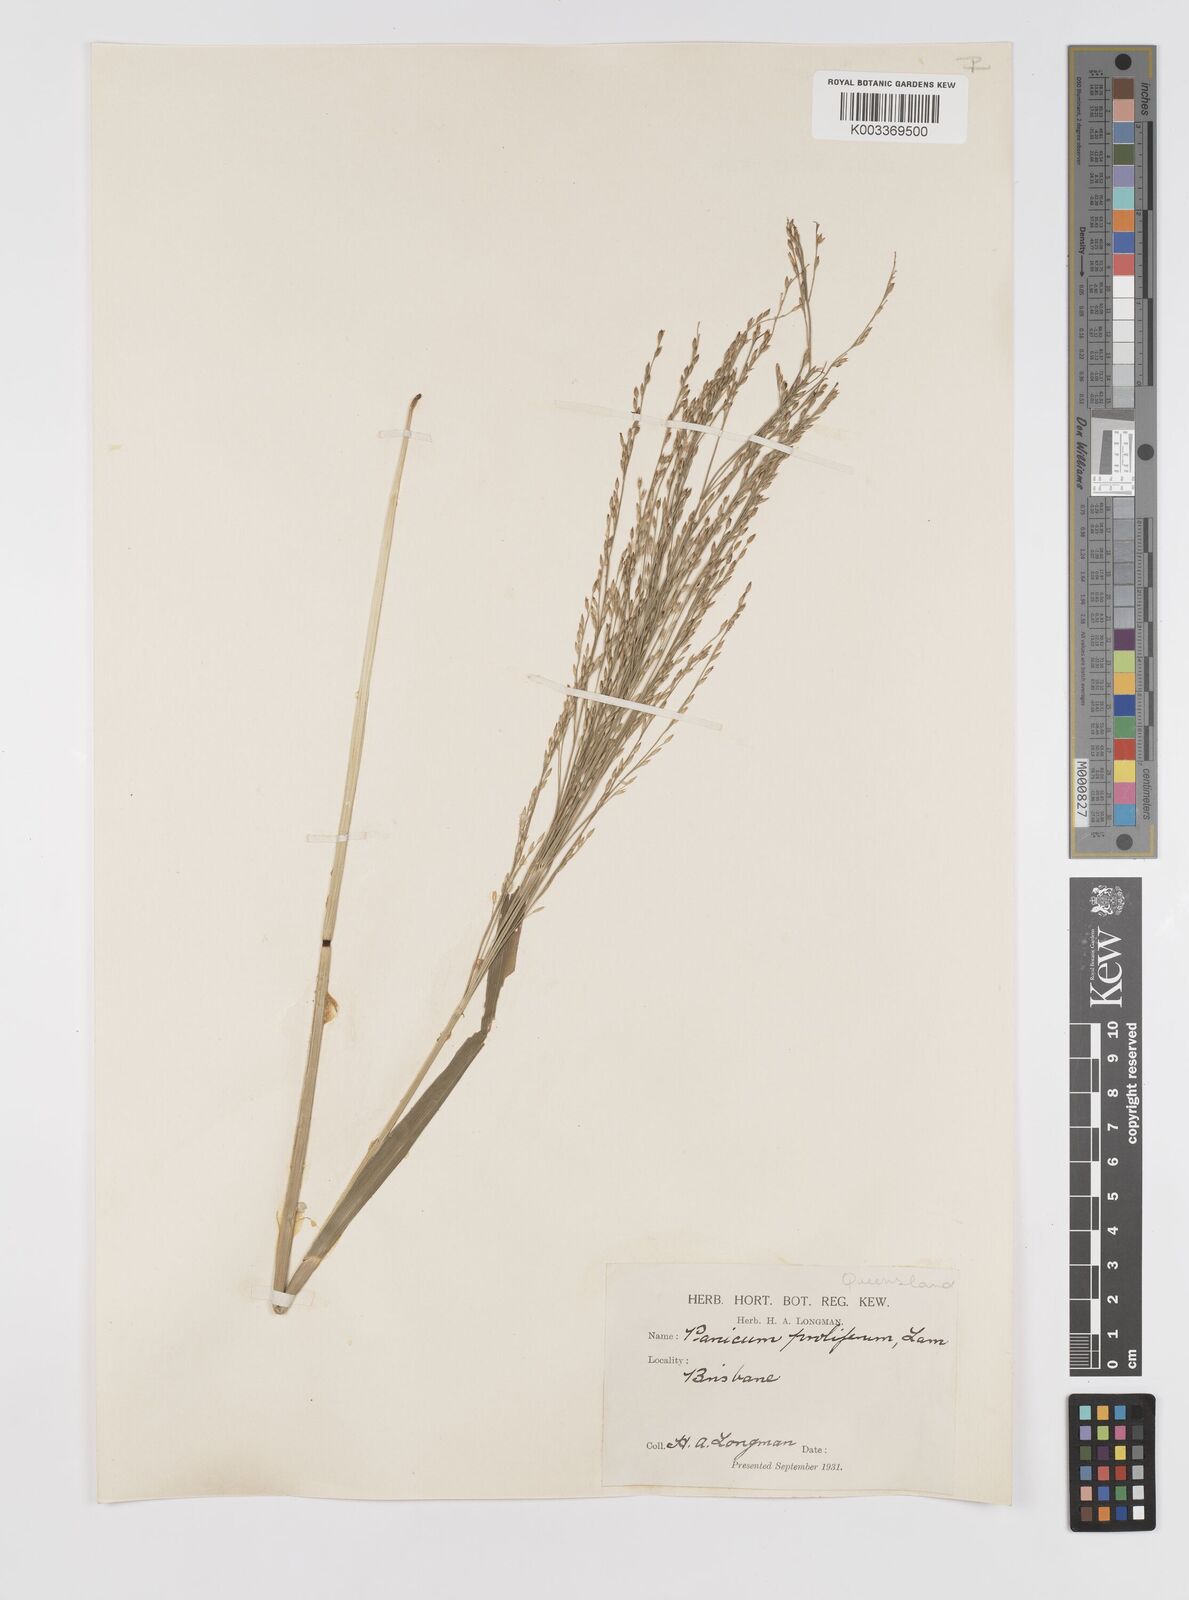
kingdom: Plantae
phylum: Tracheophyta
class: Liliopsida
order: Poales
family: Poaceae
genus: Louisiella
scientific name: Louisiella paludosa
